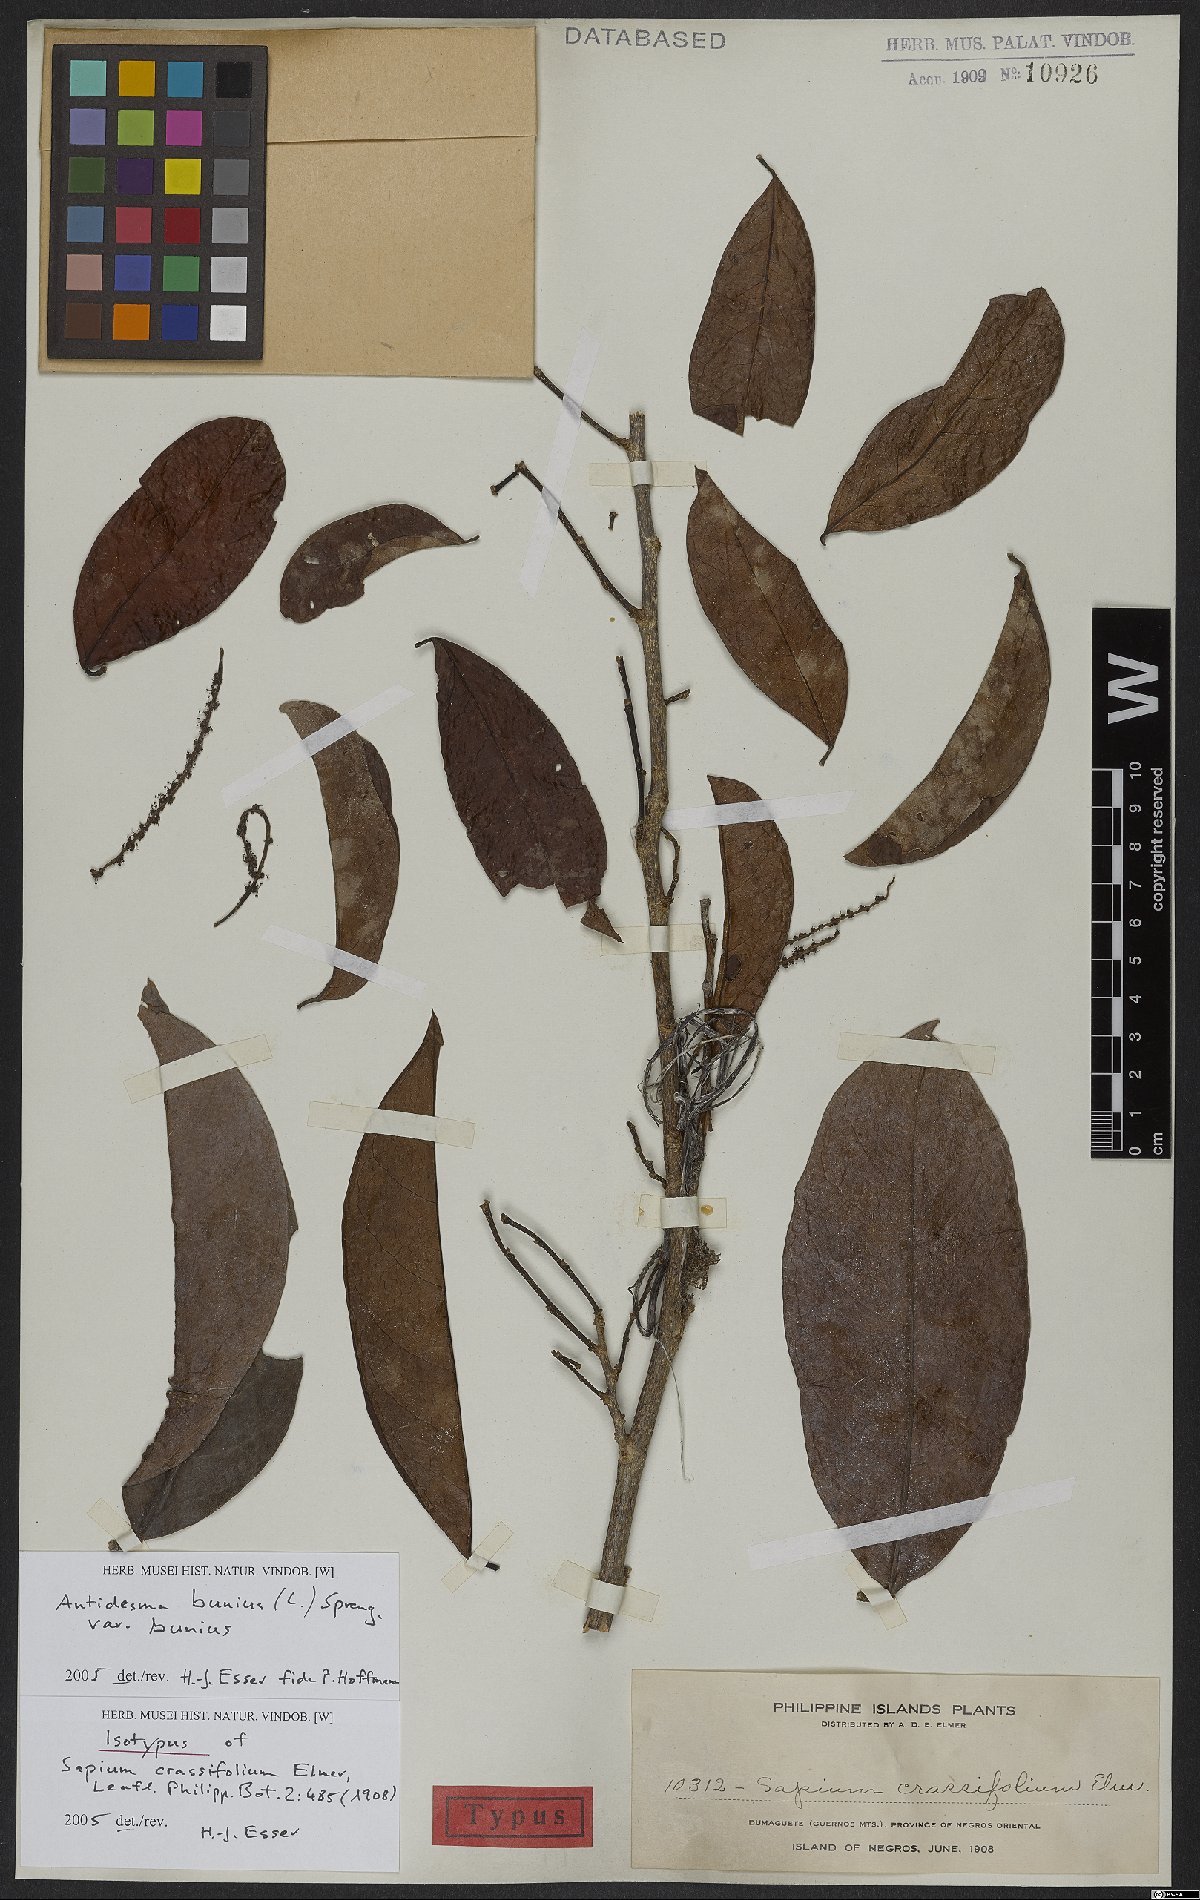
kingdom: Plantae
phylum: Tracheophyta
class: Magnoliopsida
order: Malpighiales
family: Phyllanthaceae
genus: Antidesma
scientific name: Antidesma bunius
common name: Chinese-laurel
